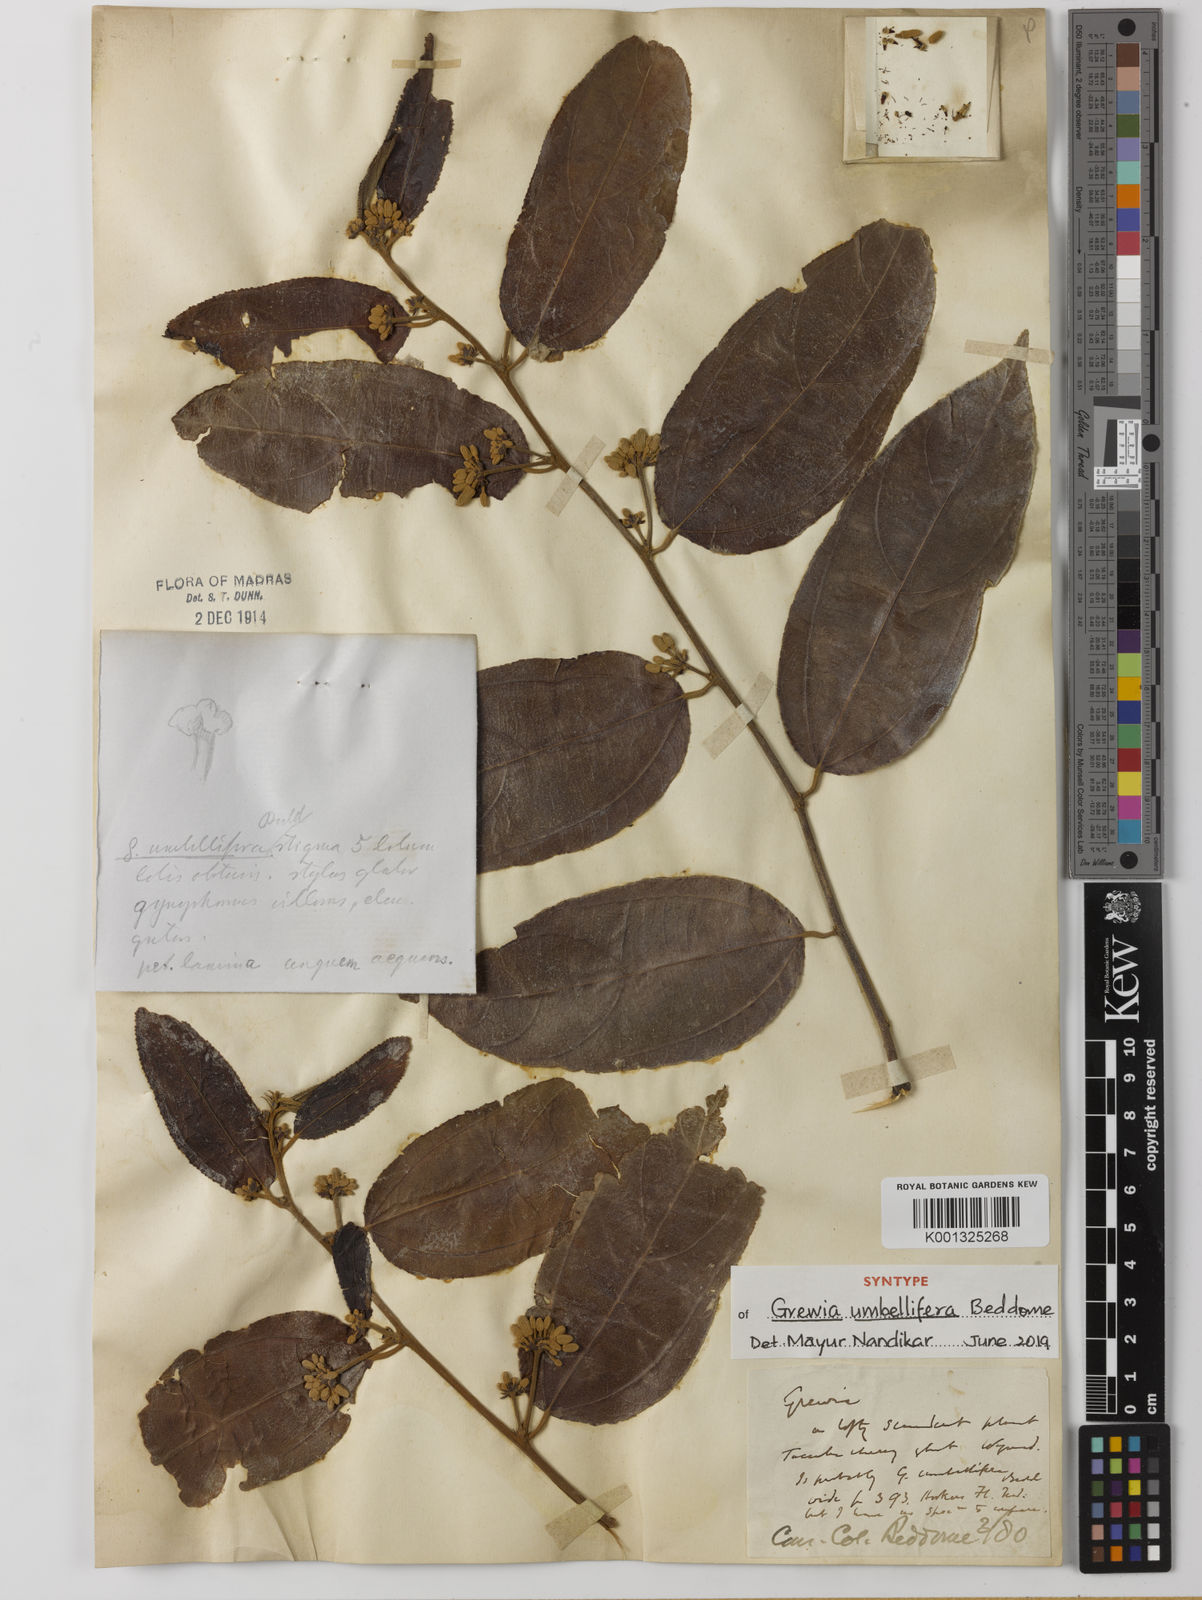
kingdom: Plantae
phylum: Tracheophyta
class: Magnoliopsida
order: Malvales
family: Malvaceae
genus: Grewia
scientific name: Grewia umbellifera
